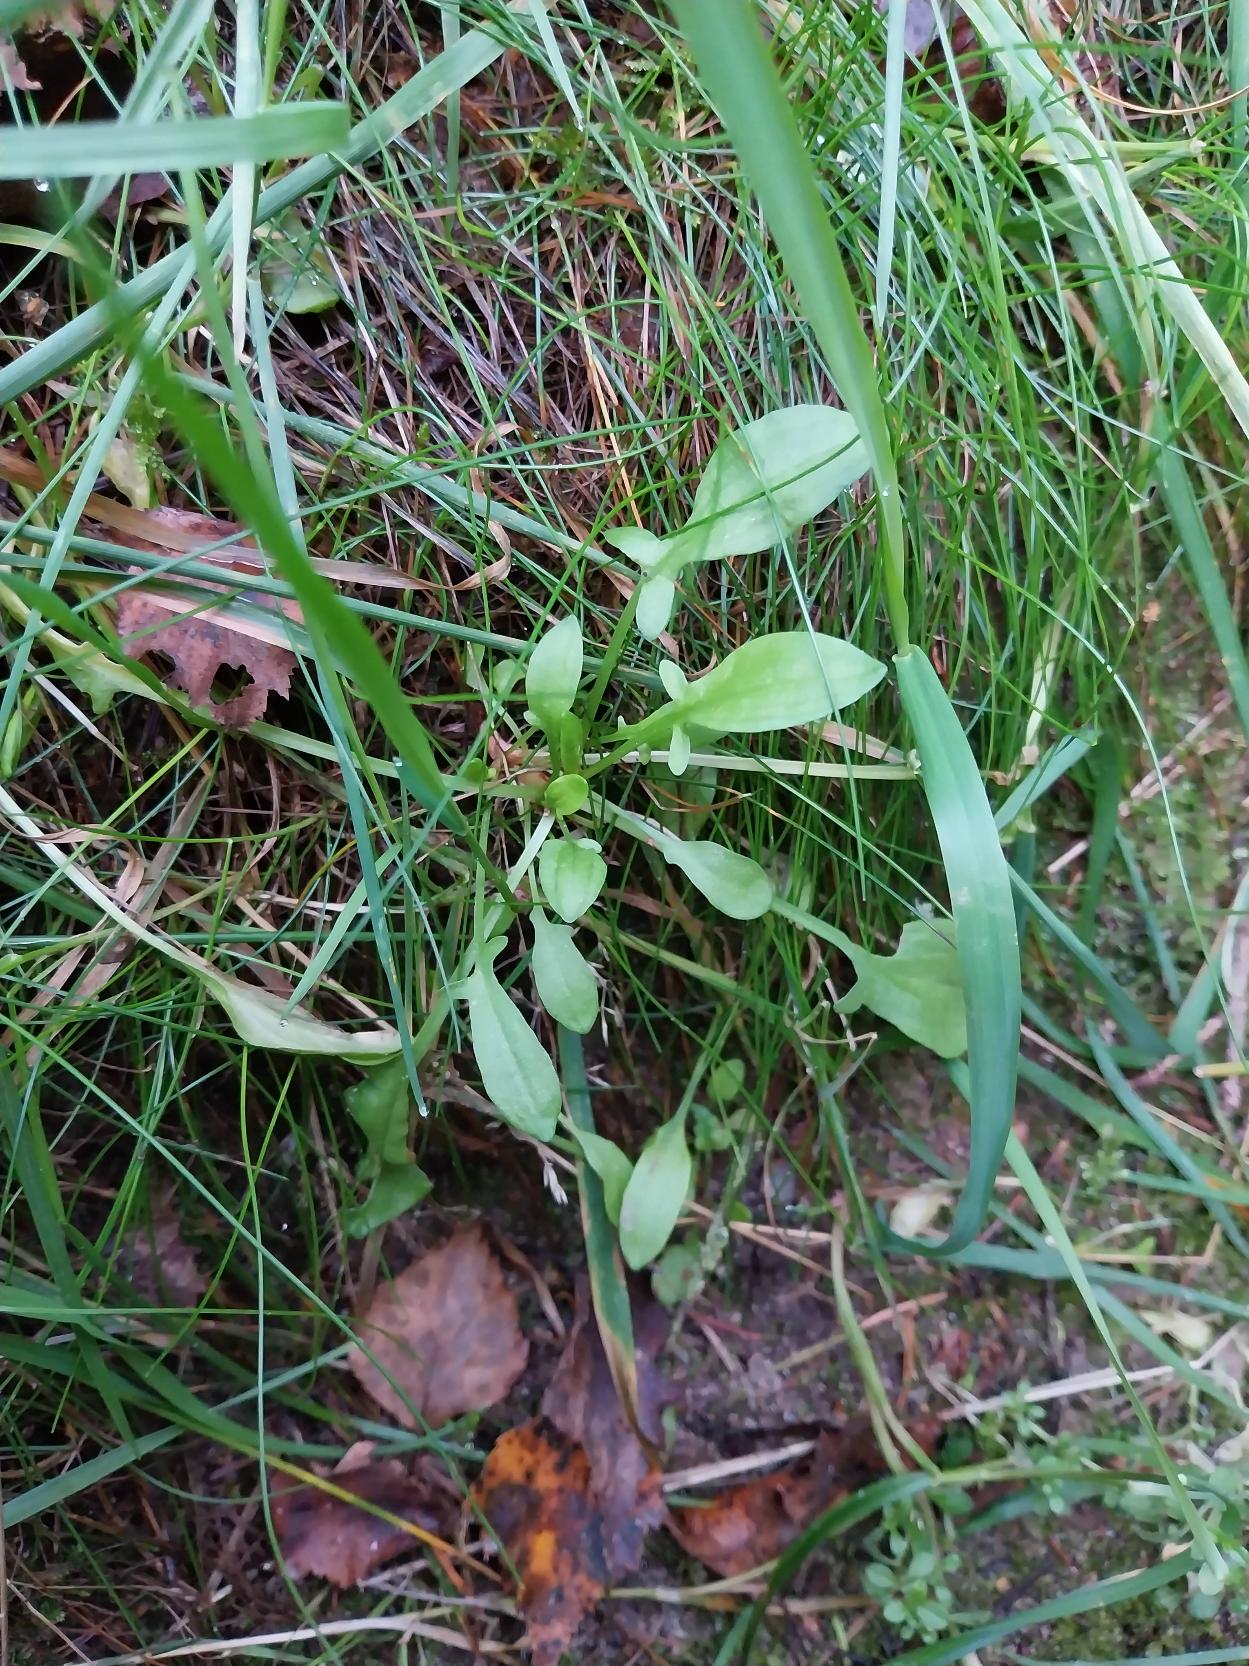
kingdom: Plantae
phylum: Tracheophyta
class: Magnoliopsida
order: Caryophyllales
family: Polygonaceae
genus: Rumex
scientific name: Rumex acetosella
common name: Rødknæ
